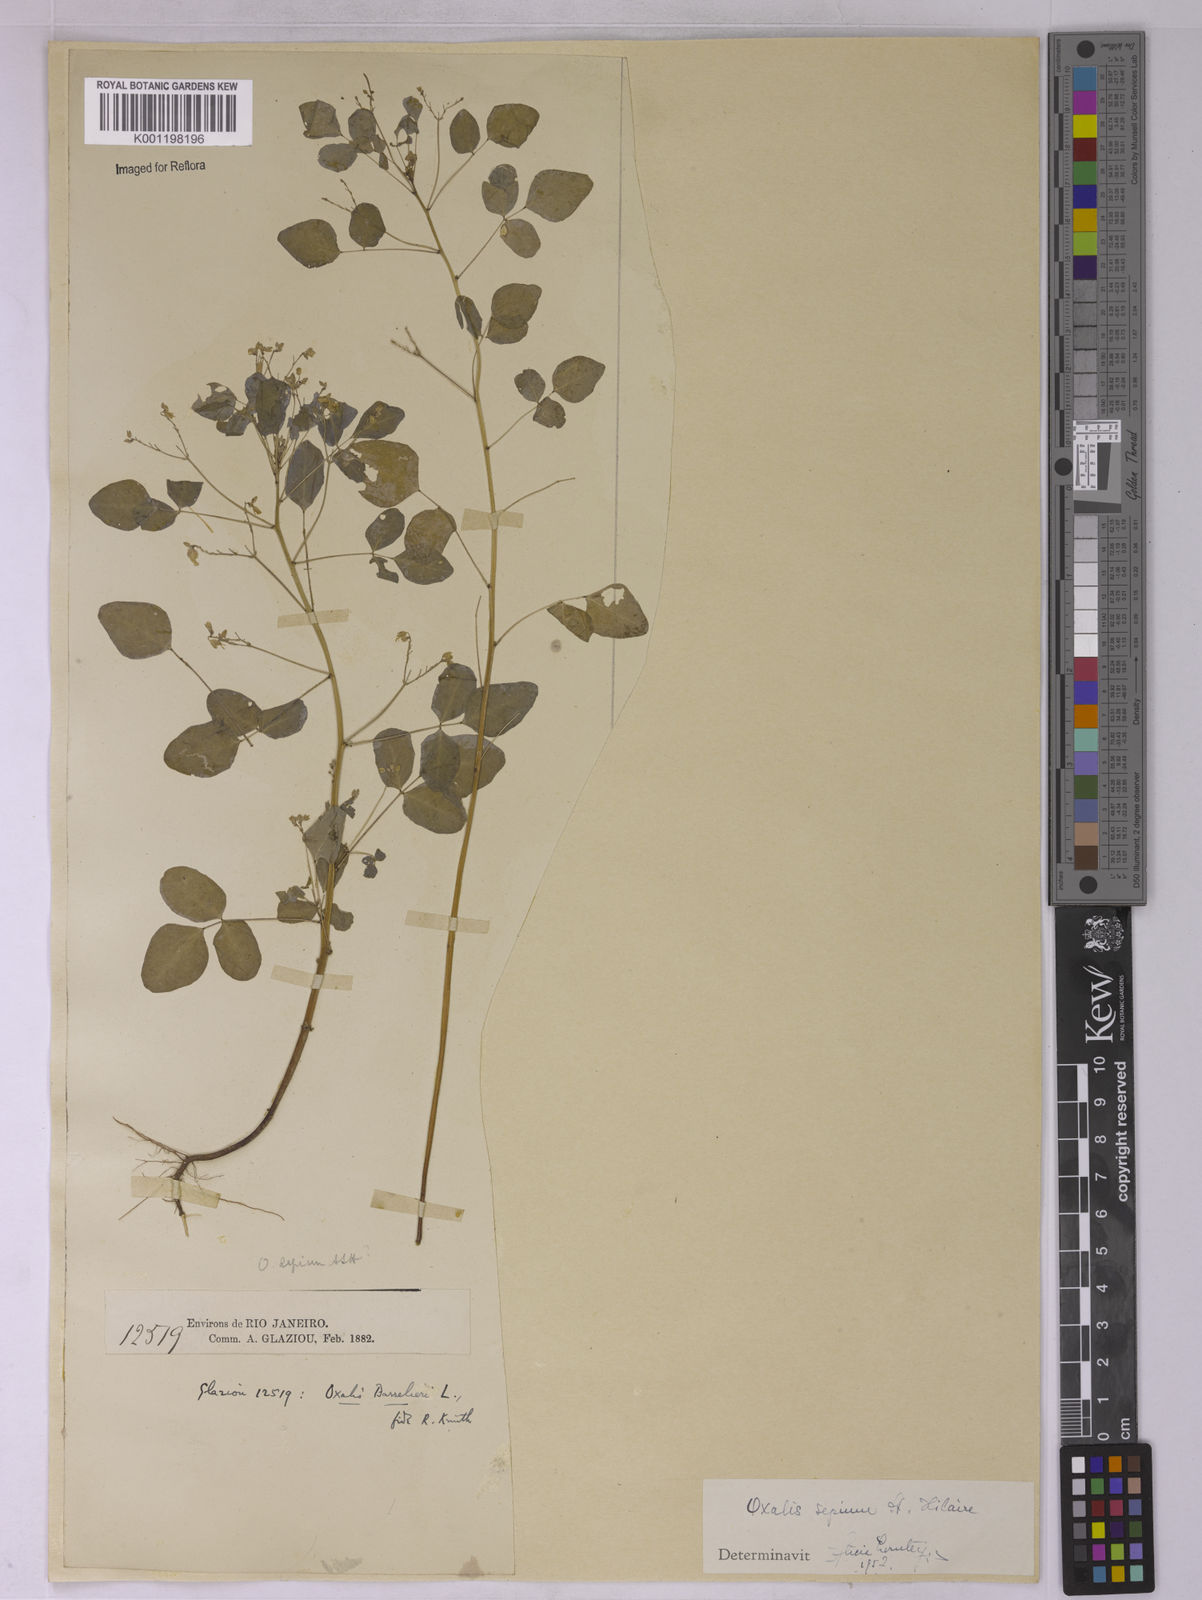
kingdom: Plantae
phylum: Tracheophyta
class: Magnoliopsida
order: Oxalidales
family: Oxalidaceae
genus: Oxalis
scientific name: Oxalis sepium
